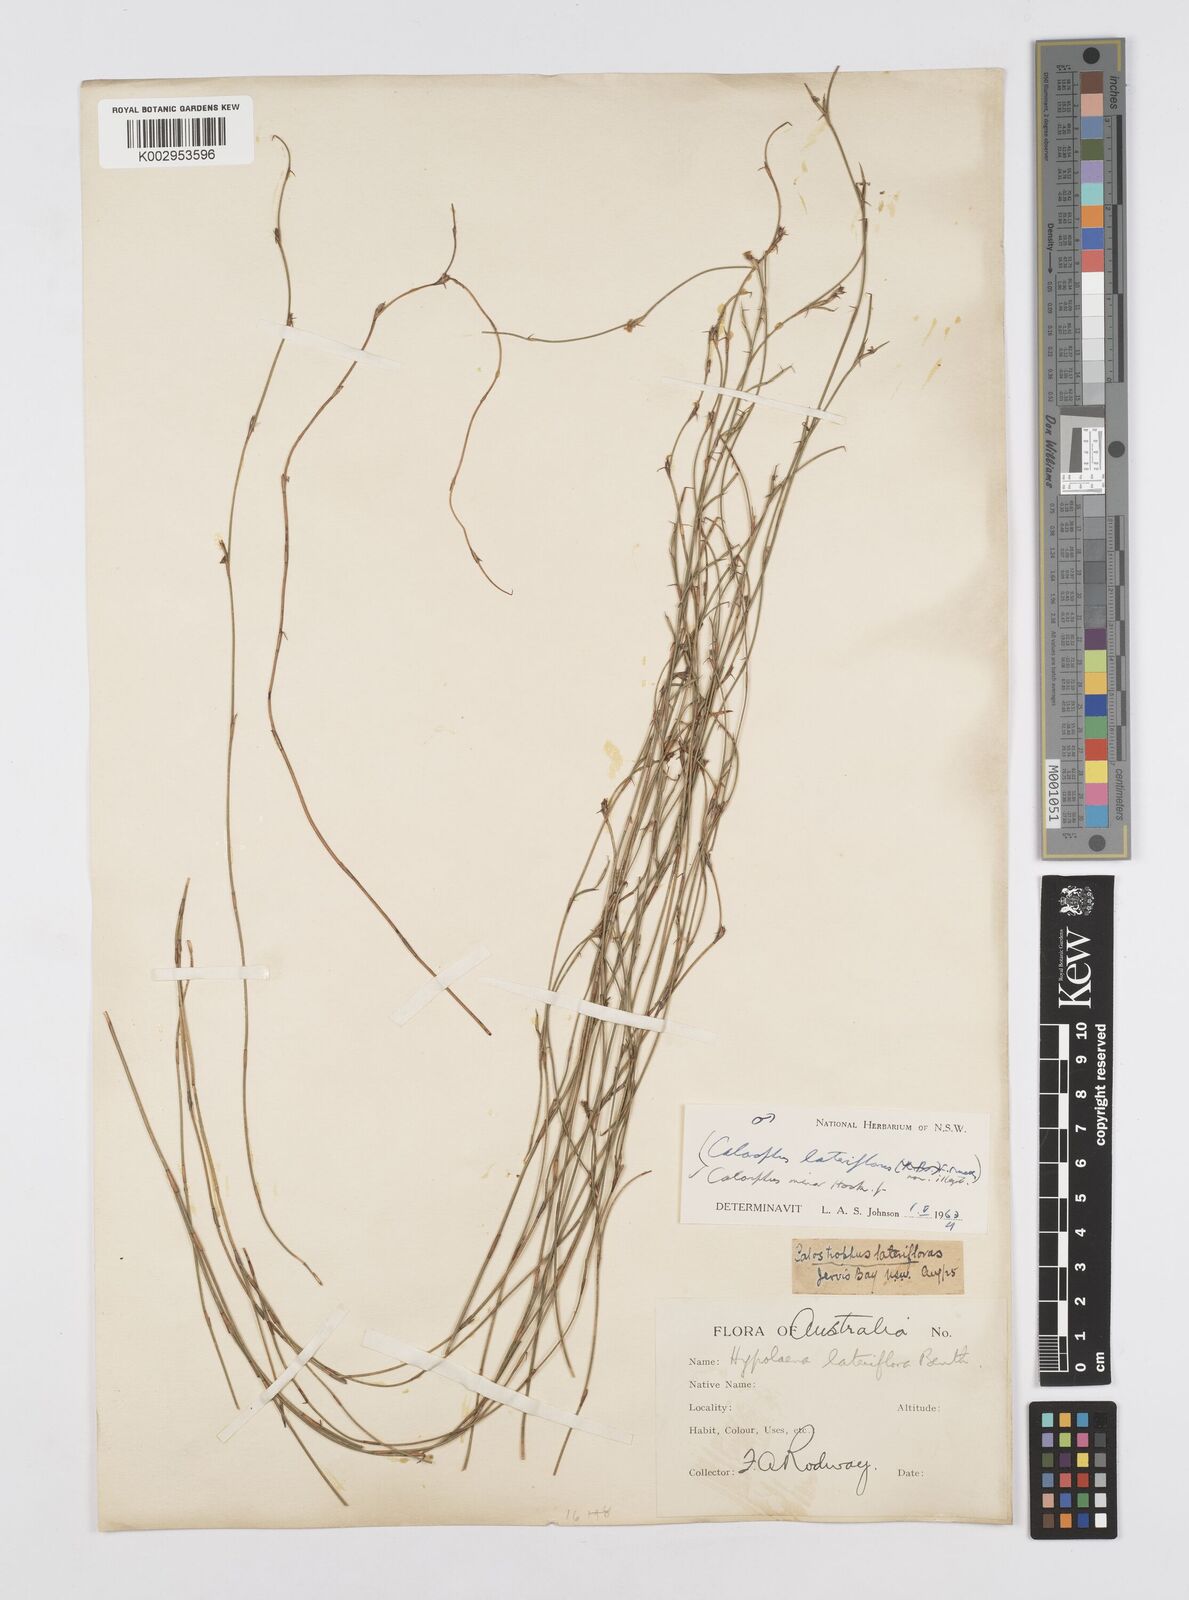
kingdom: Plantae
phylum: Tracheophyta
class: Liliopsida
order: Poales
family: Restionaceae
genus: Empodisma
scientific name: Empodisma minus
